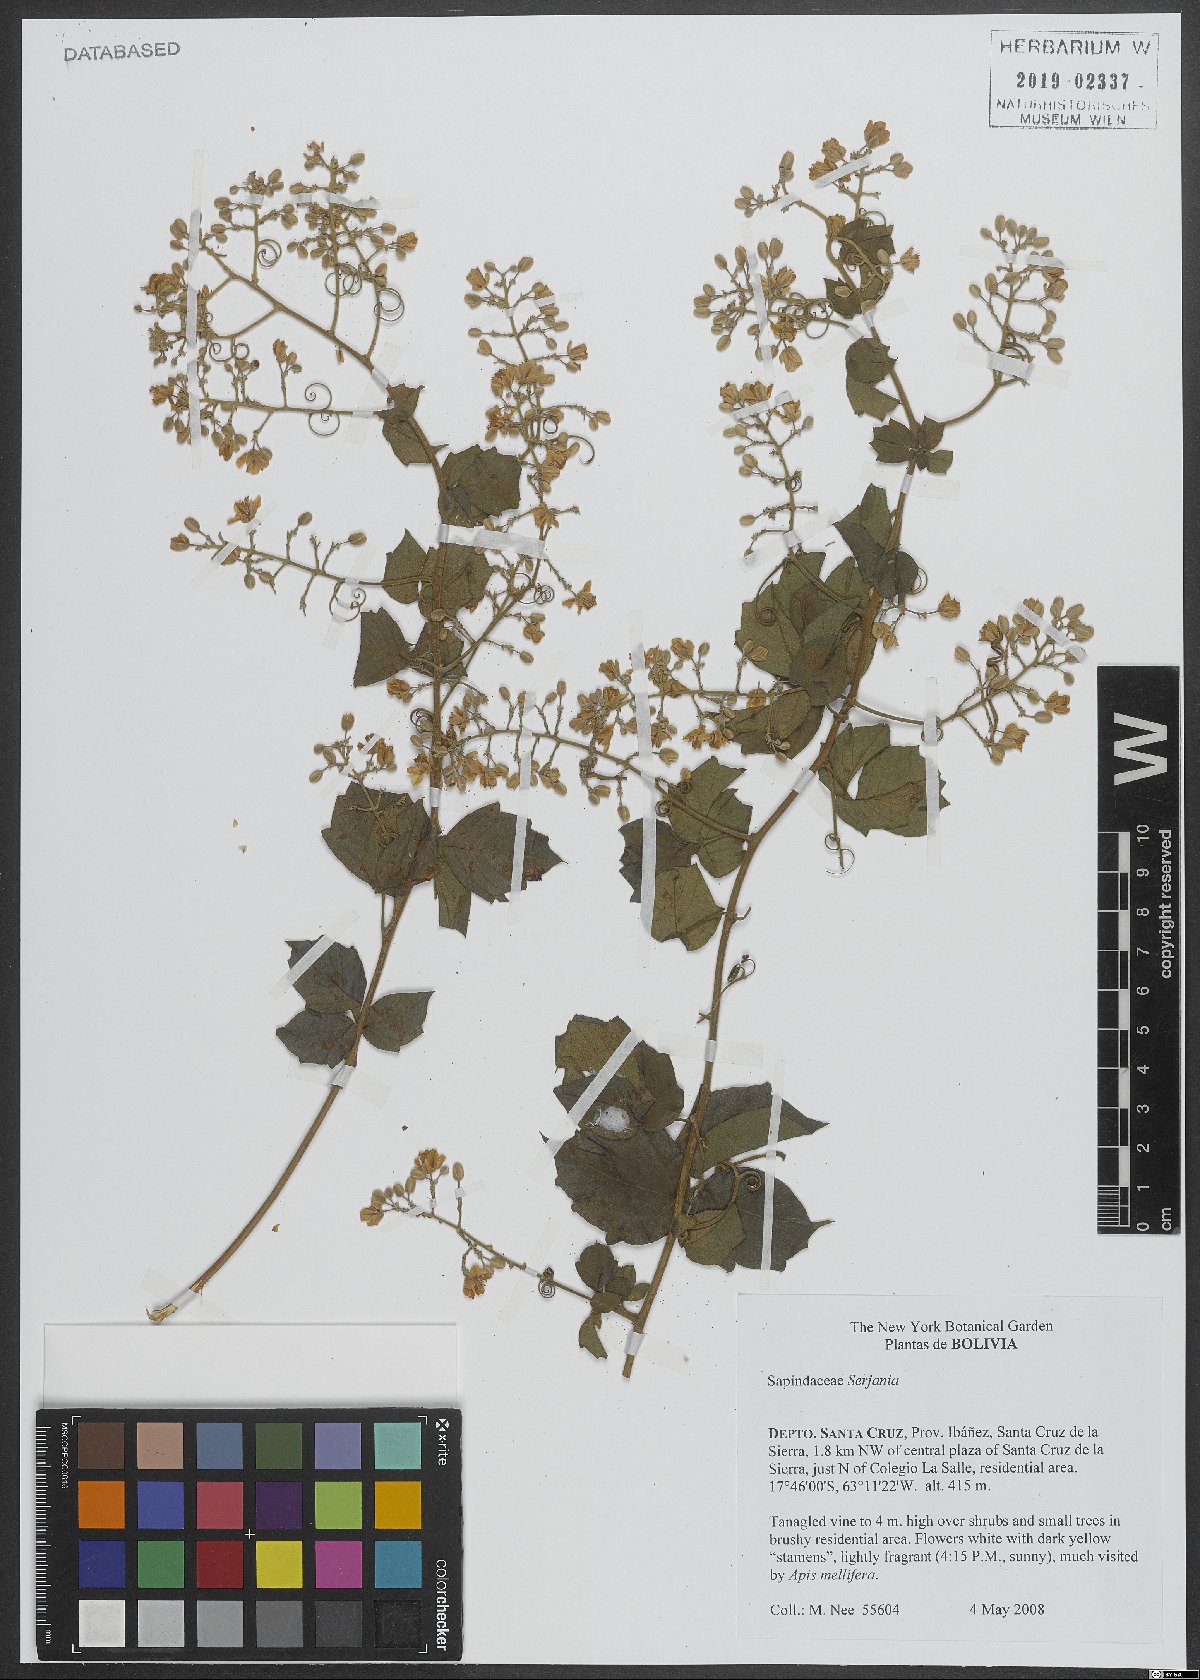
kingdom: Plantae
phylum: Tracheophyta
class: Magnoliopsida
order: Sapindales
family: Sapindaceae
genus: Serjania
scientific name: Serjania
